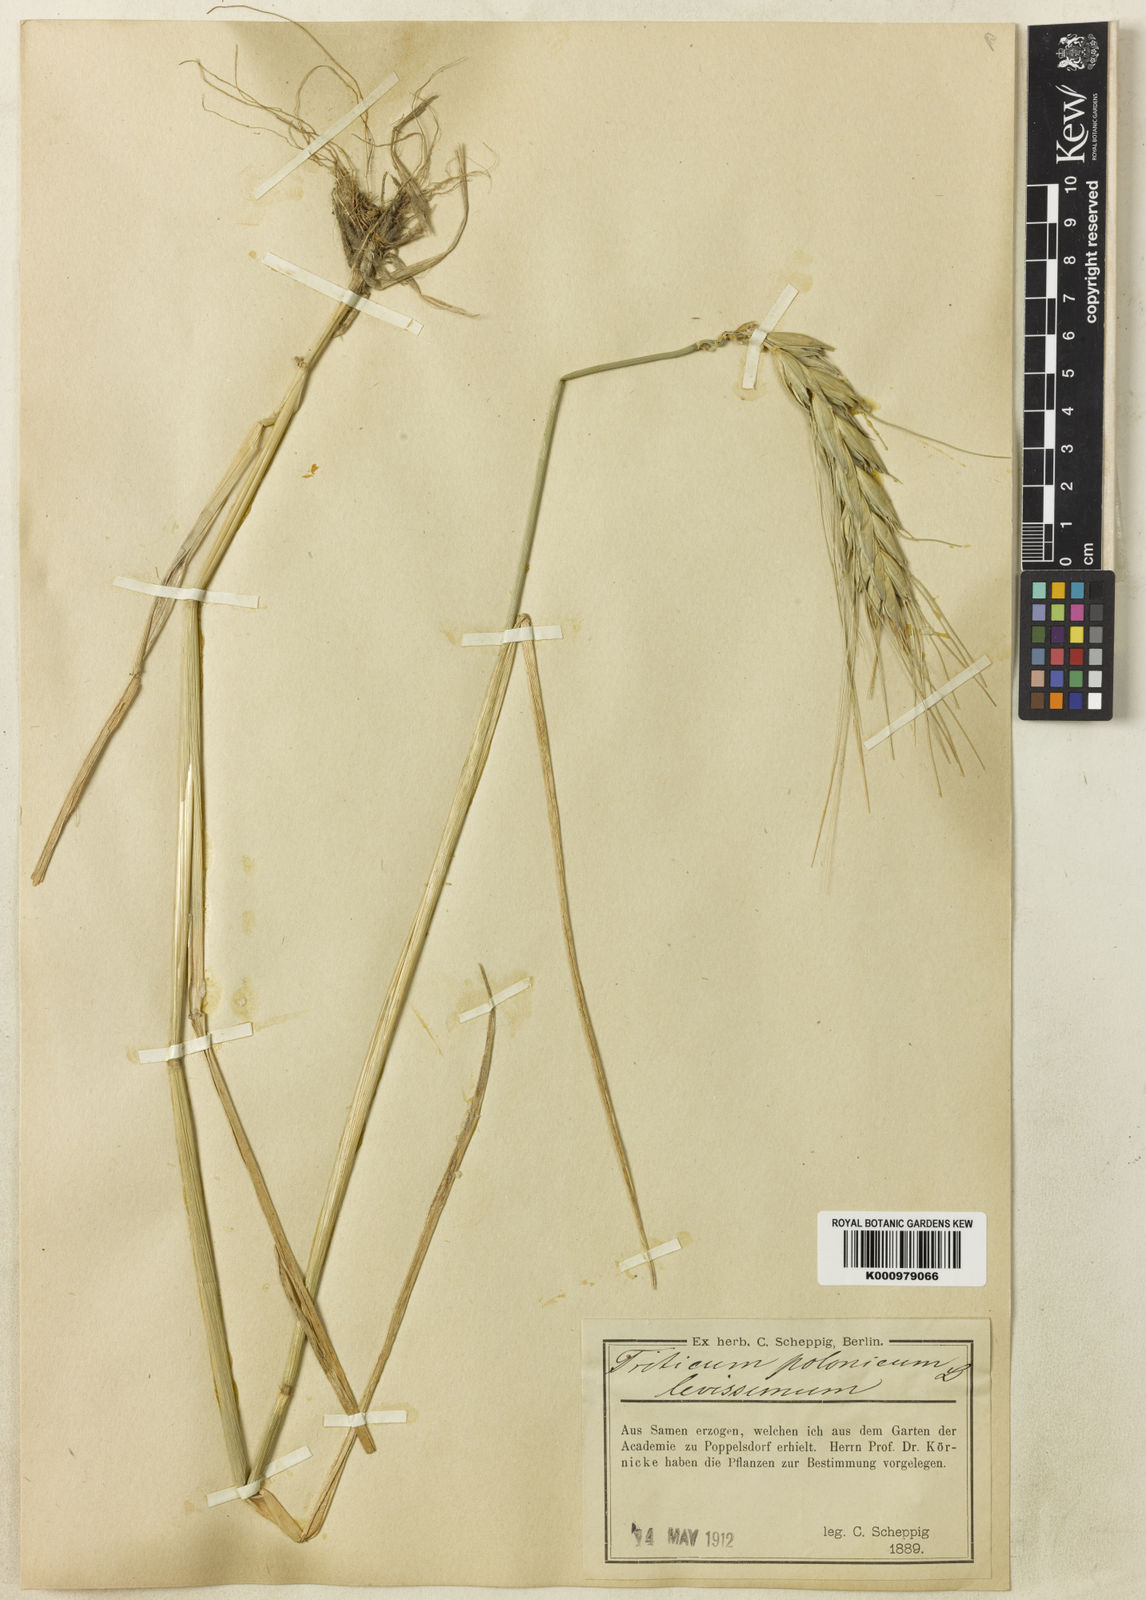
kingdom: Plantae
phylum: Tracheophyta
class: Liliopsida
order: Poales
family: Poaceae
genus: Triticum
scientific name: Triticum turgidum
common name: Rivet wheat
